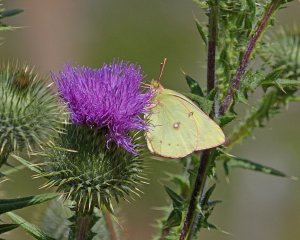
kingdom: Animalia
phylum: Arthropoda
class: Insecta
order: Lepidoptera
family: Pieridae
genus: Colias
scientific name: Colias philodice
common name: Clouded Sulphur
